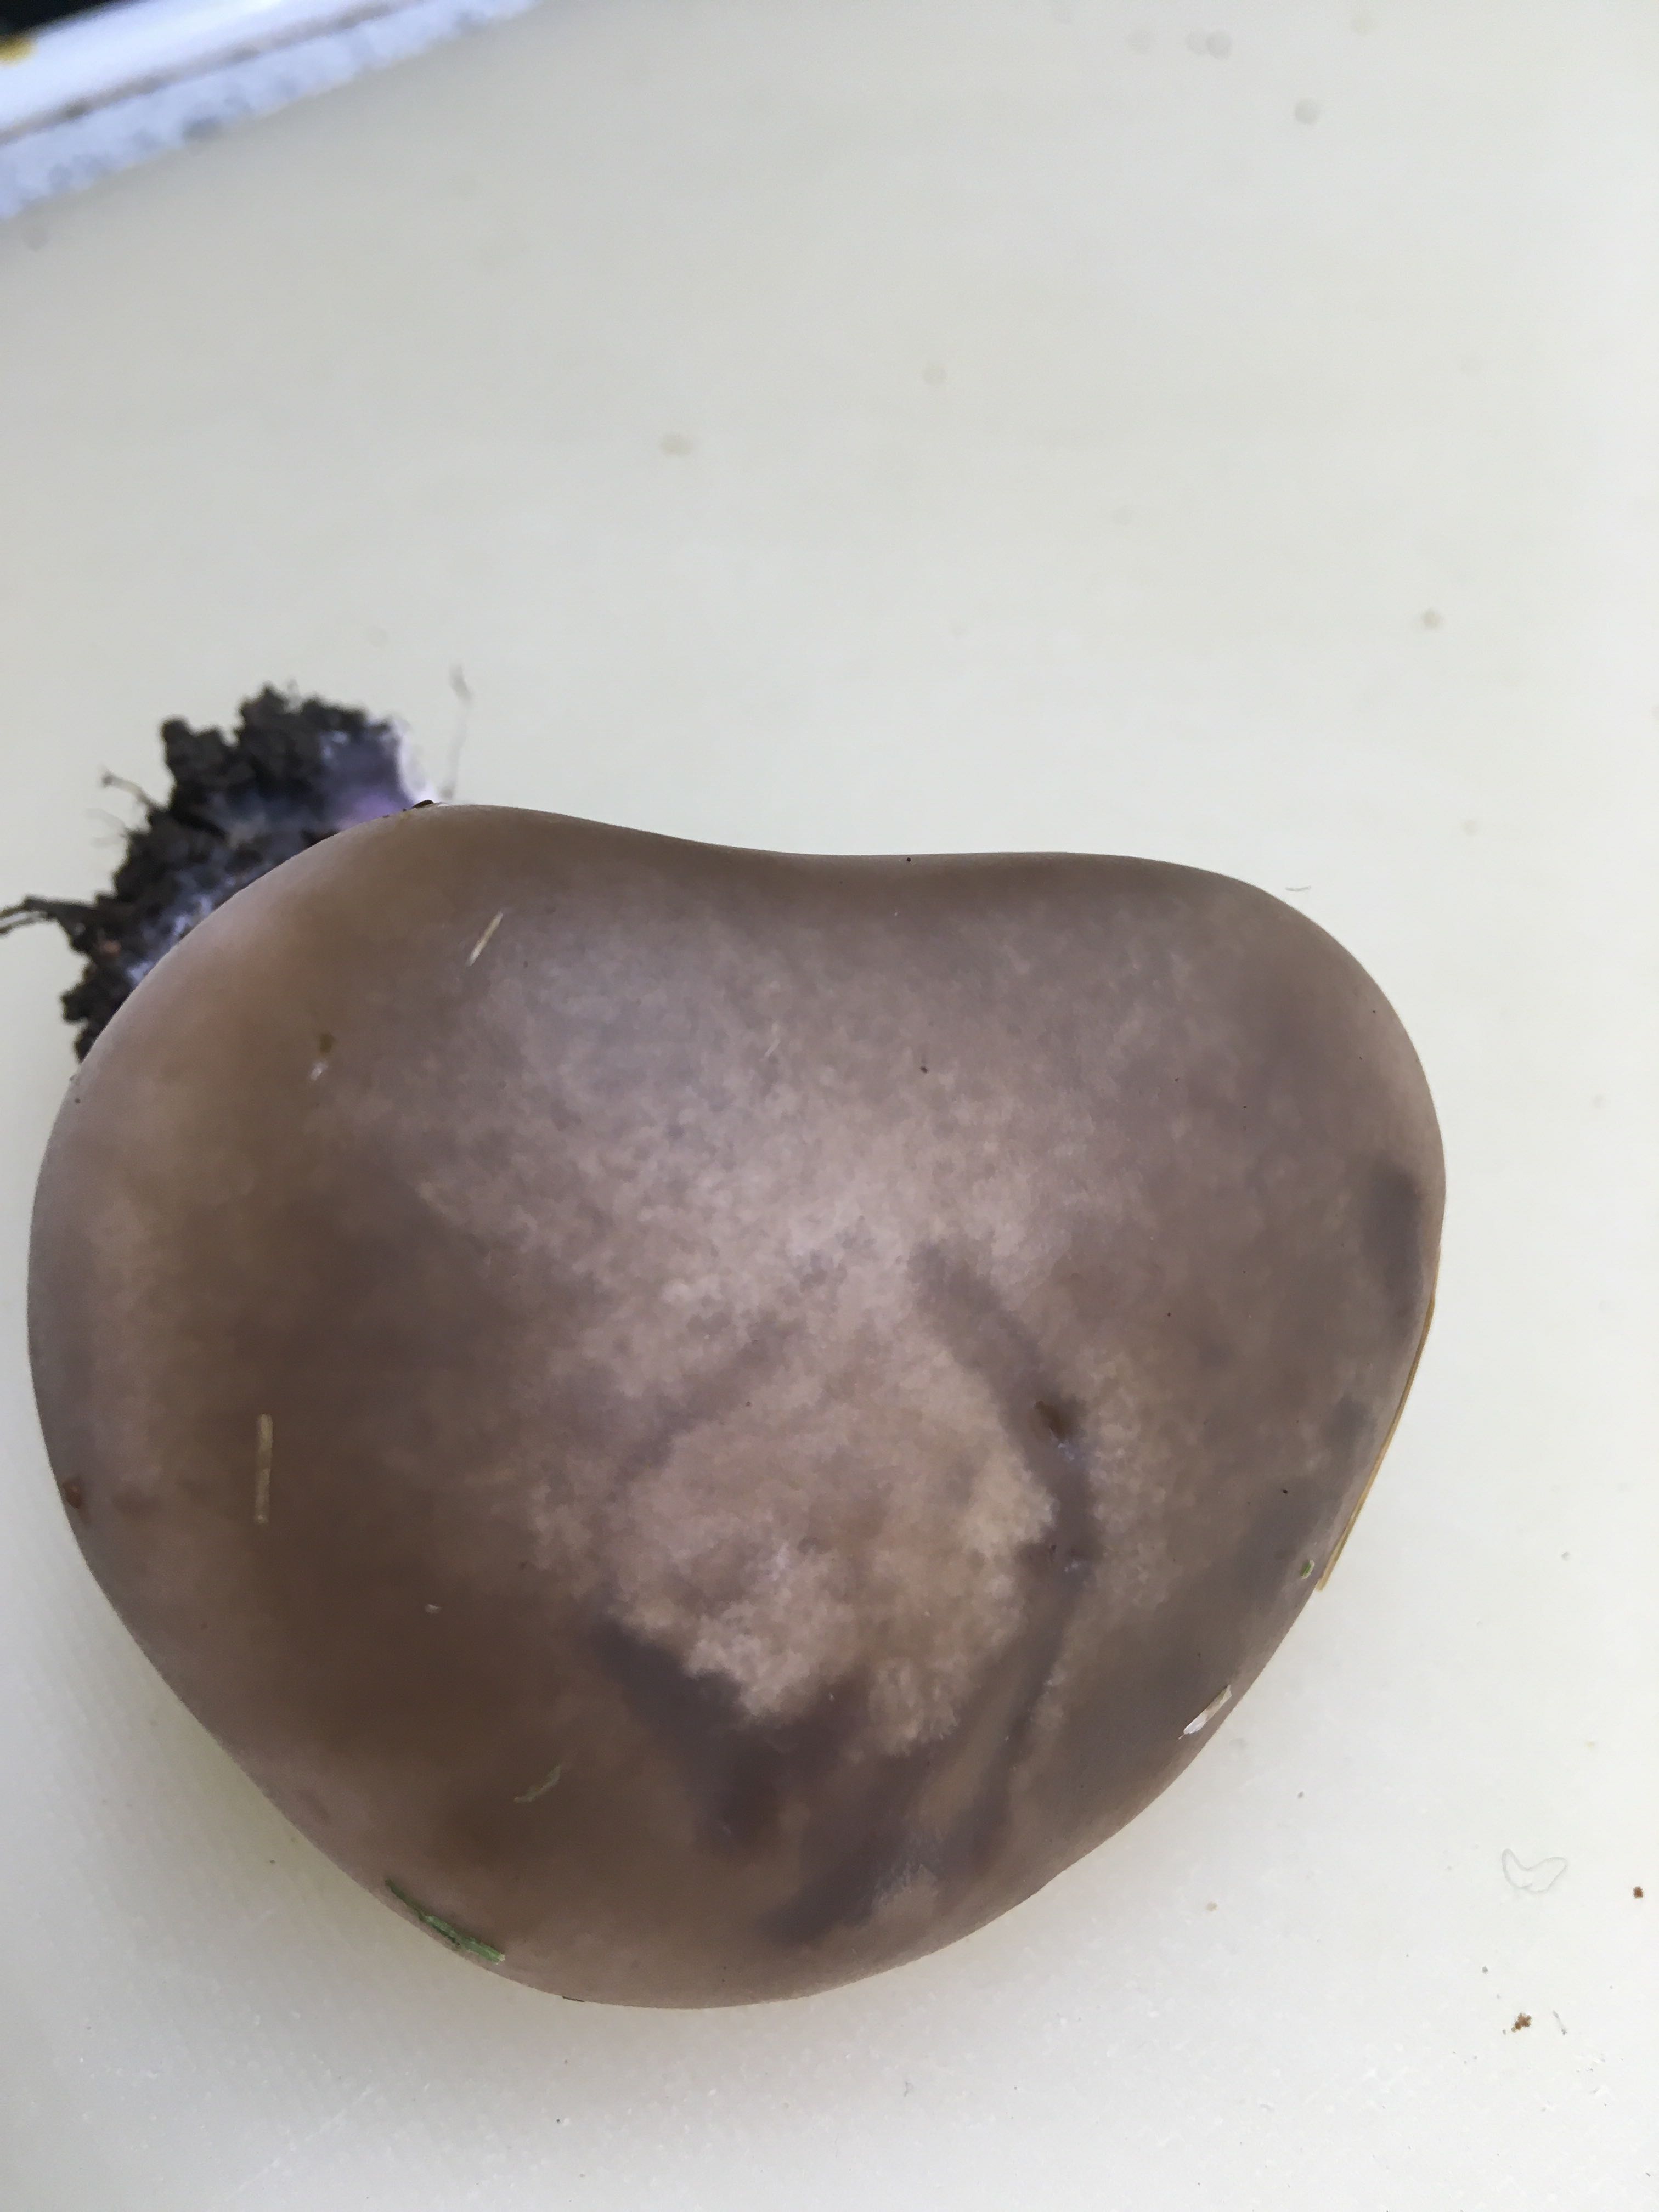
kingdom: Fungi
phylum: Basidiomycota
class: Agaricomycetes
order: Agaricales
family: Tricholomataceae
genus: Lepista
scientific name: Lepista personata
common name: bleg hekseringshat
